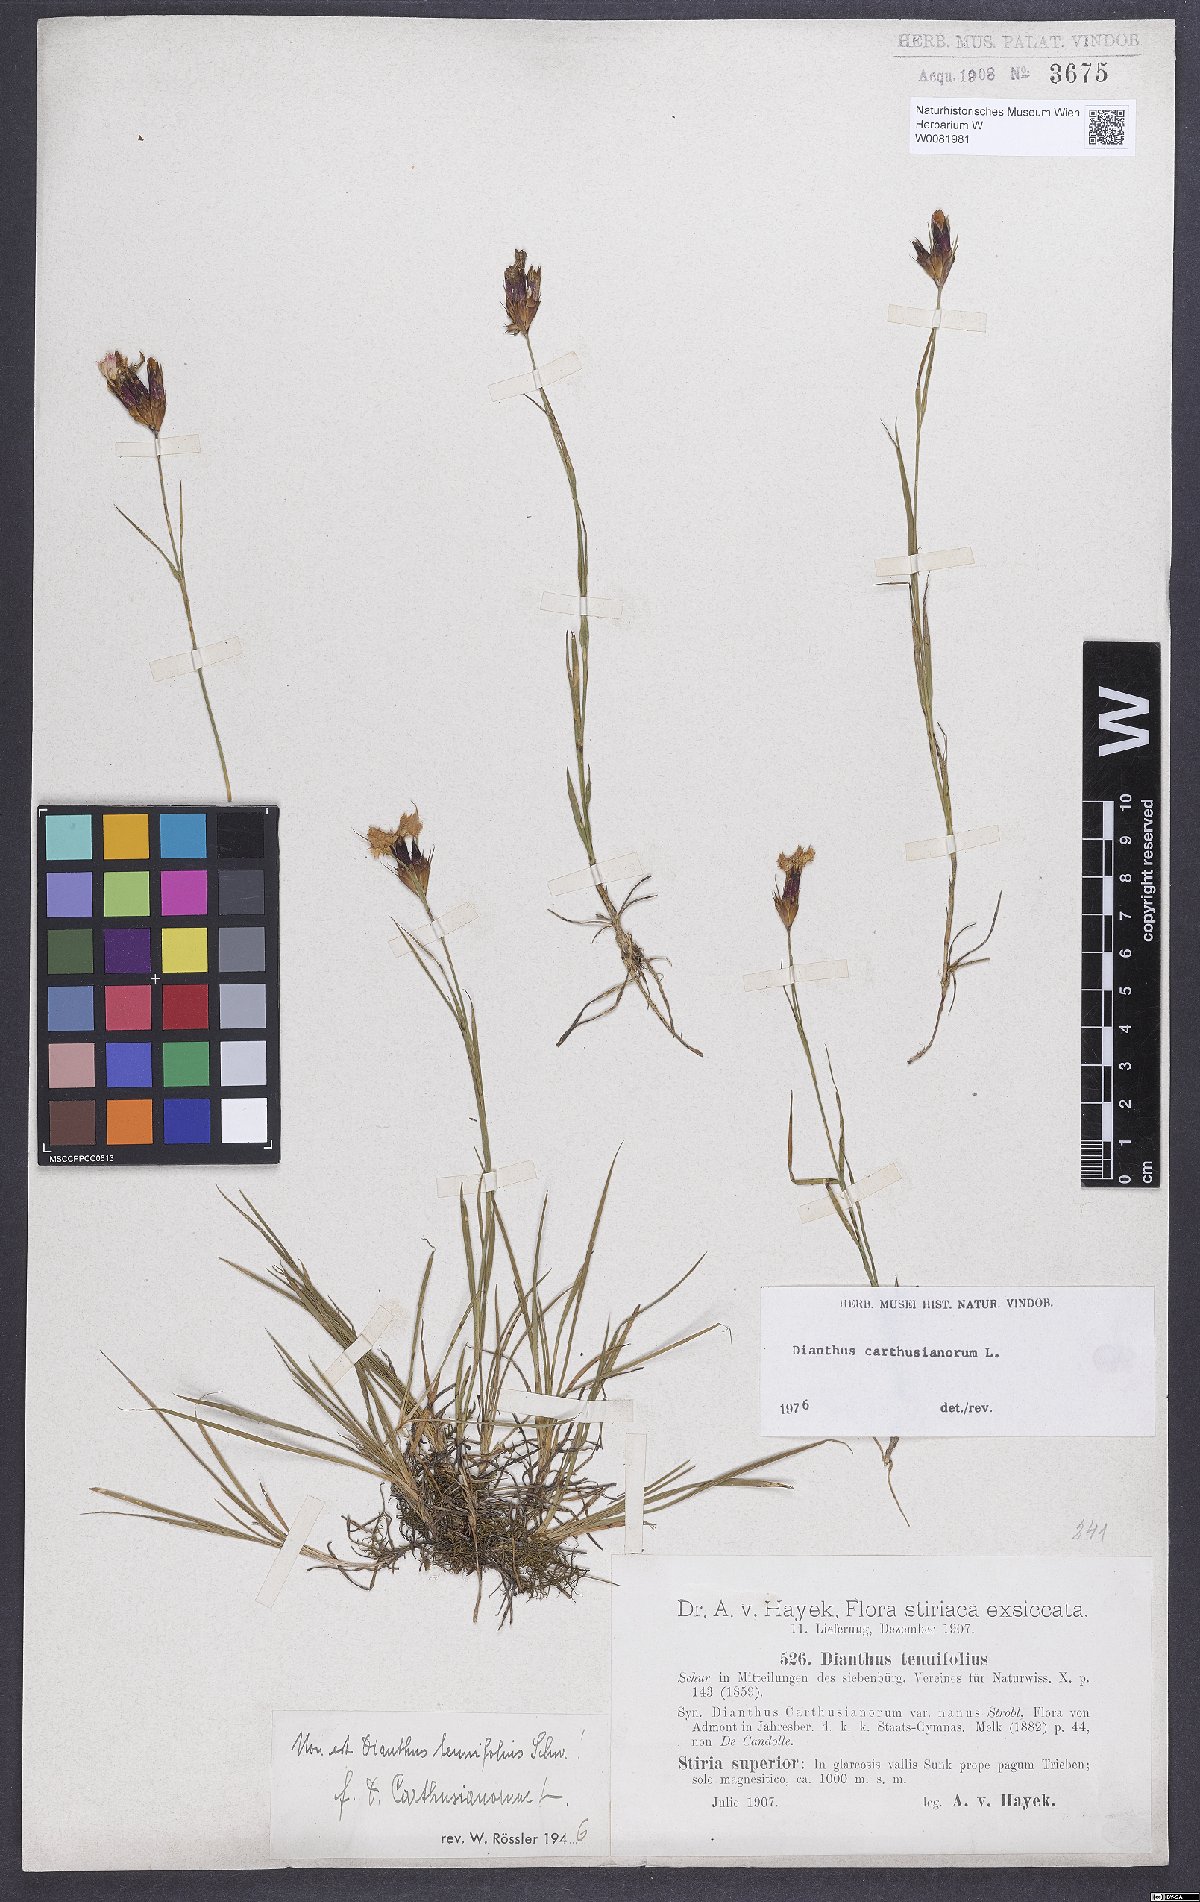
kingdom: Plantae
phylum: Tracheophyta
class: Magnoliopsida
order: Caryophyllales
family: Caryophyllaceae
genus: Dianthus
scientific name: Dianthus carthusianorum
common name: Carthusian pink
